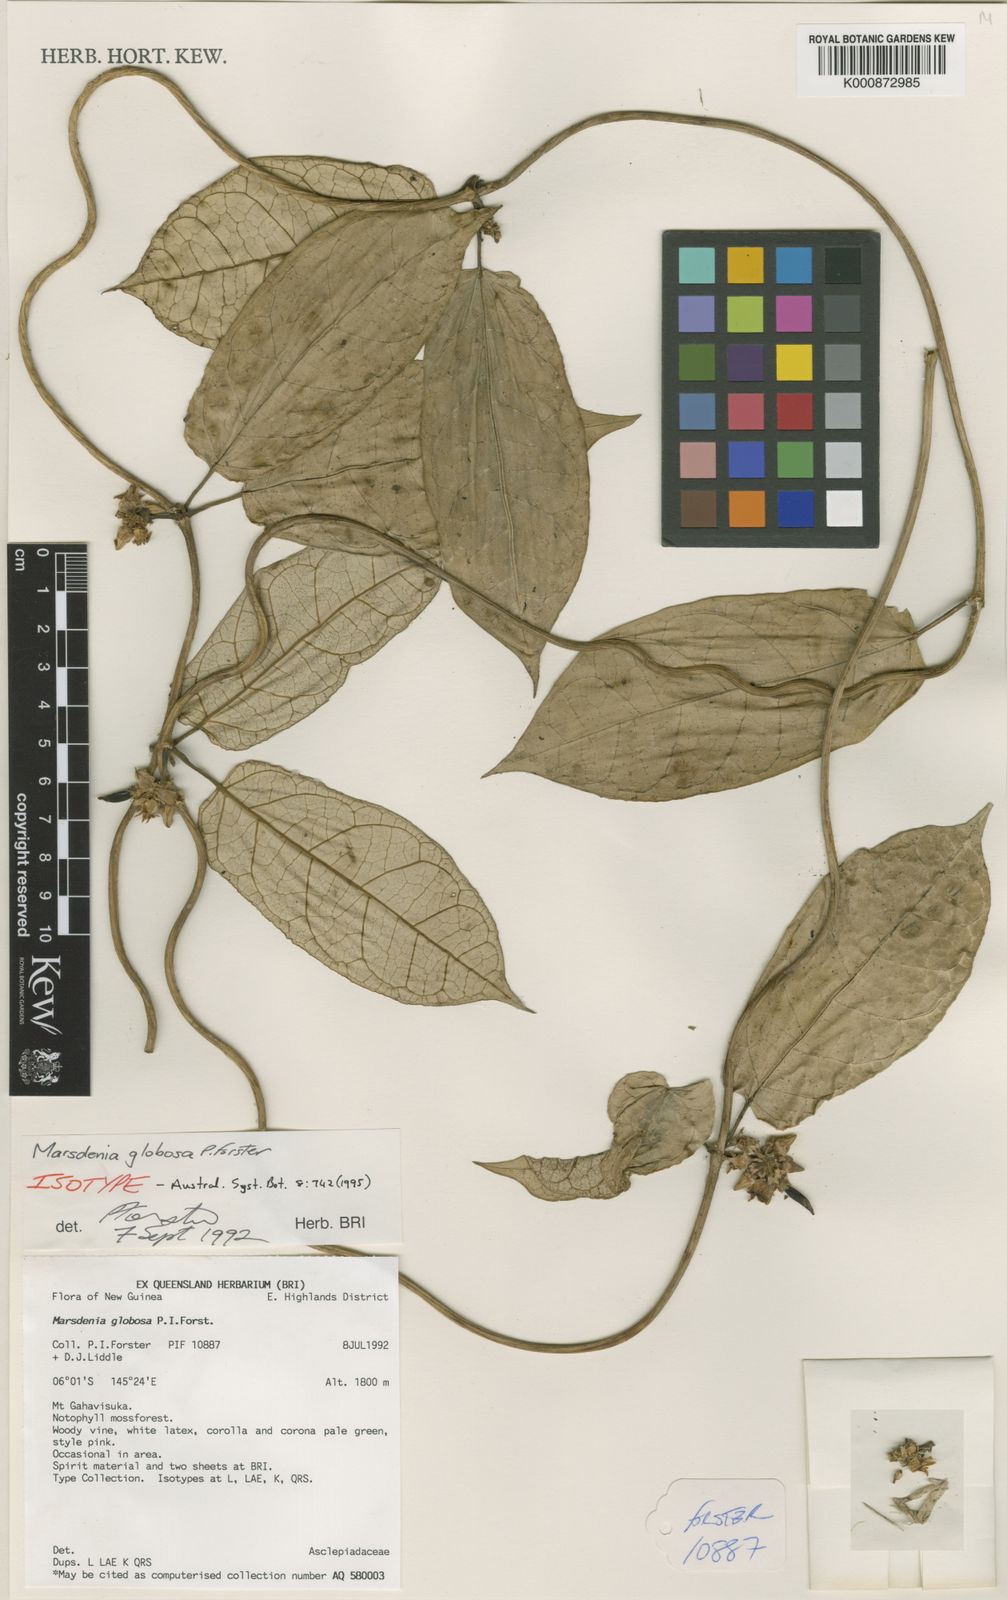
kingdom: Plantae
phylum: Tracheophyta
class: Magnoliopsida
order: Gentianales
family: Apocynaceae
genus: Leichhardtia
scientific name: Leichhardtia globosa
